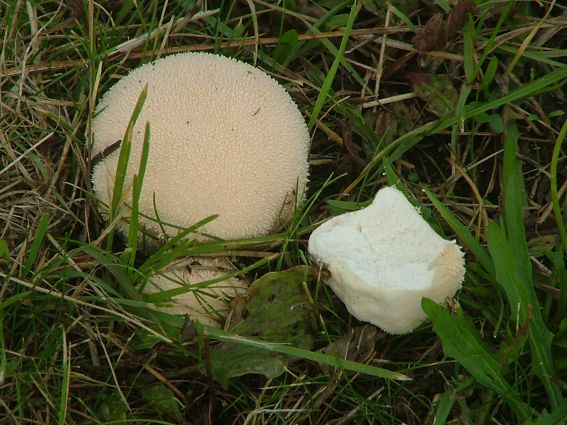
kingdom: Fungi
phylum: Basidiomycota
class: Agaricomycetes
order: Agaricales
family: Lycoperdaceae
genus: Lycoperdon
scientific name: Lycoperdon pratense
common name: flad støvbold
